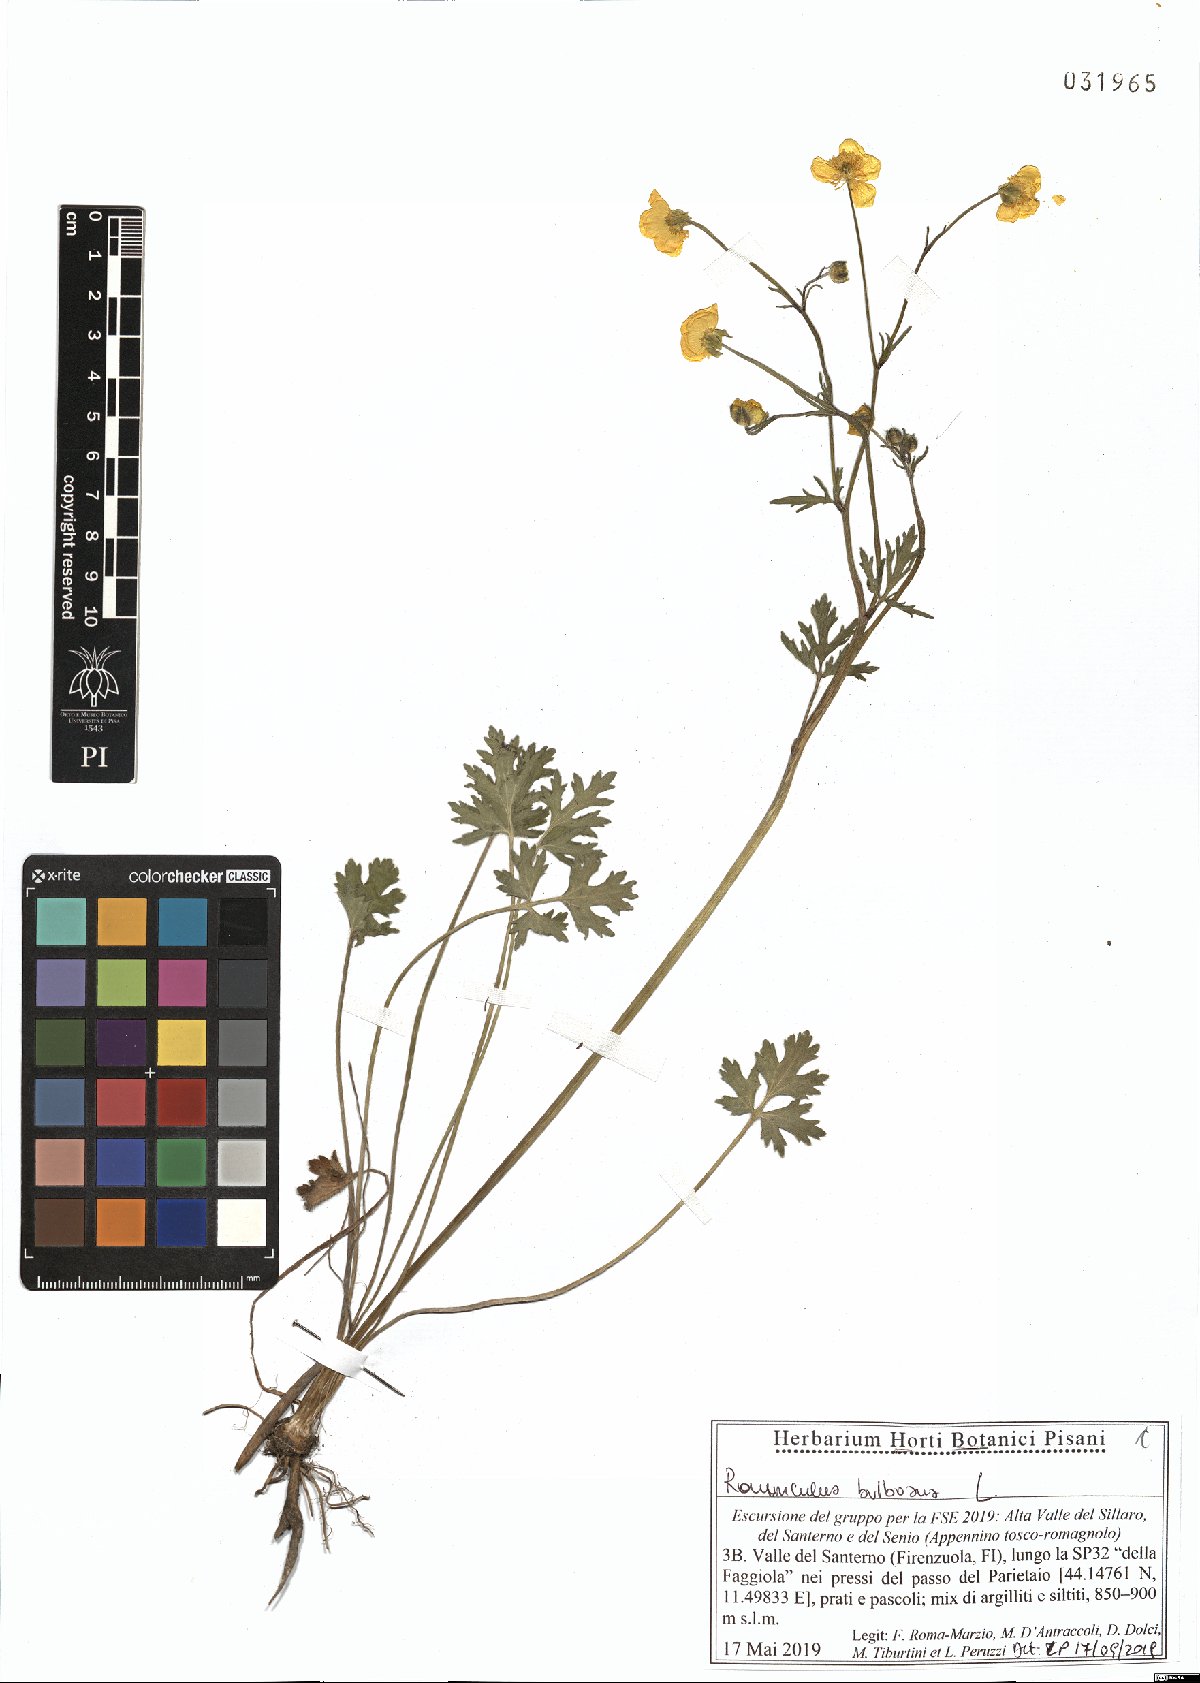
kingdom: Plantae
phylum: Tracheophyta
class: Magnoliopsida
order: Ranunculales
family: Ranunculaceae
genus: Ranunculus
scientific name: Ranunculus bulbosus
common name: Bulbous buttercup
